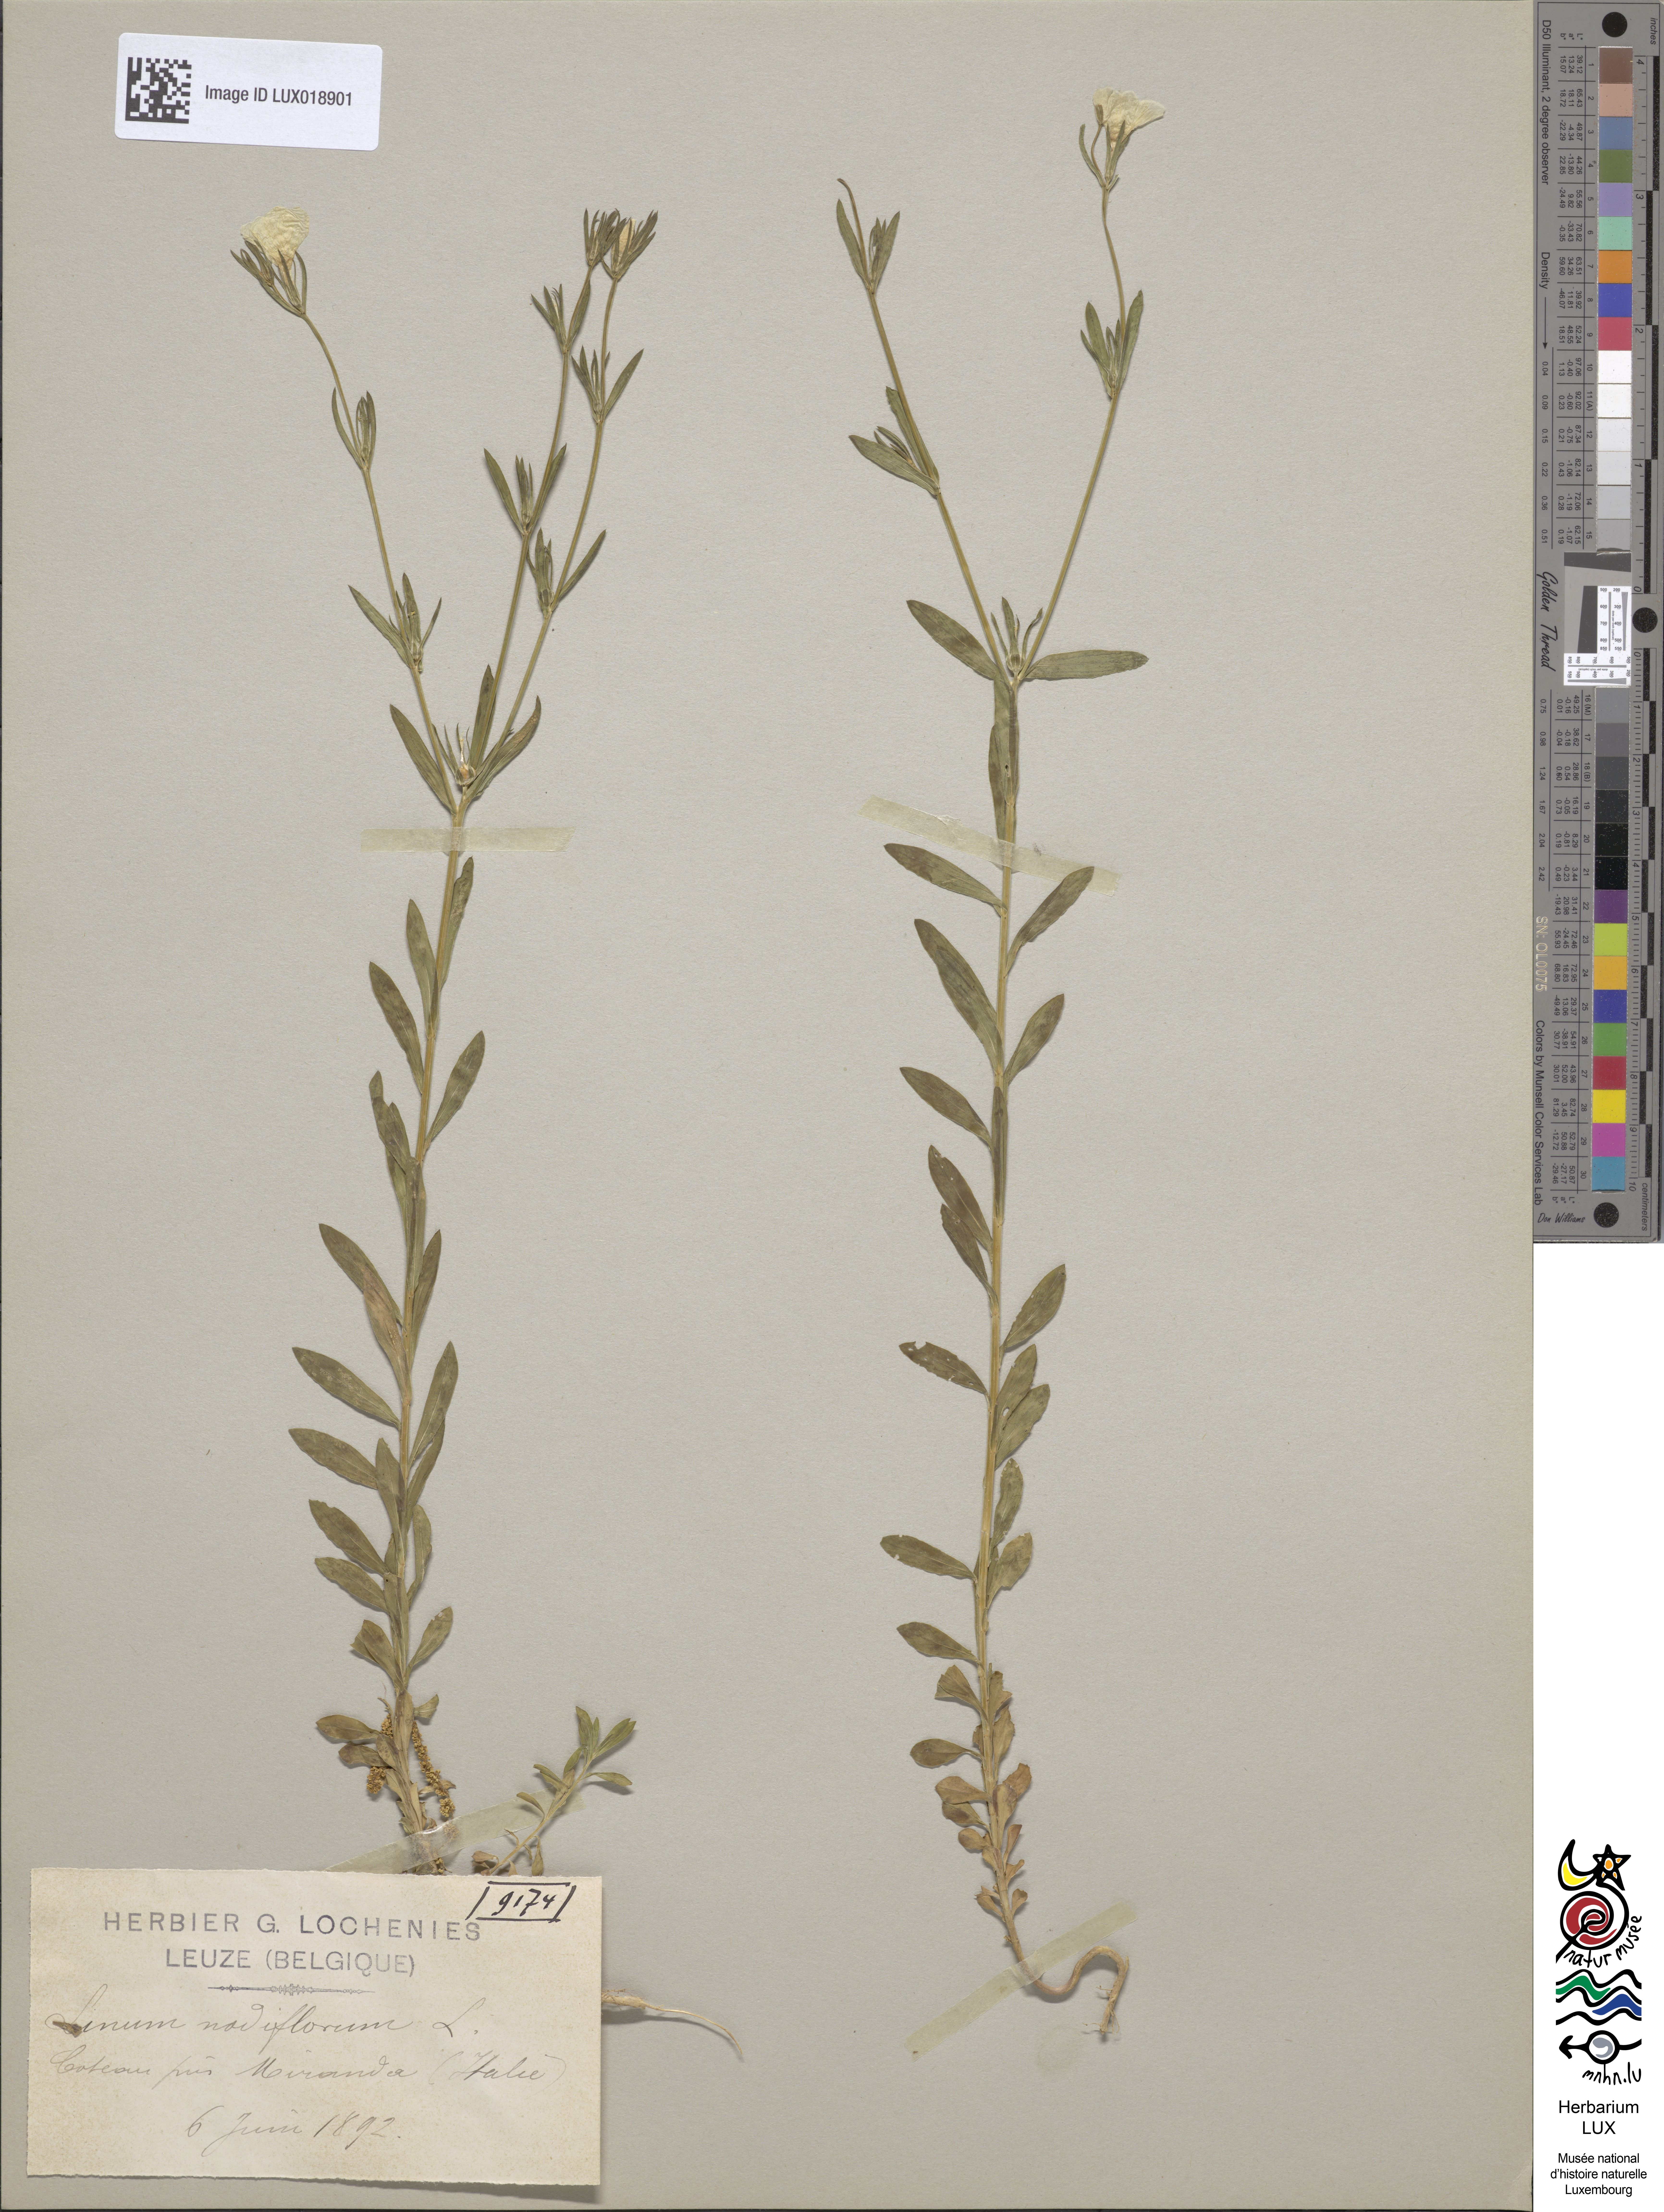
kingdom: Plantae
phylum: Tracheophyta
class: Magnoliopsida
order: Malpighiales
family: Linaceae
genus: Linum
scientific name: Linum nodiflorum
